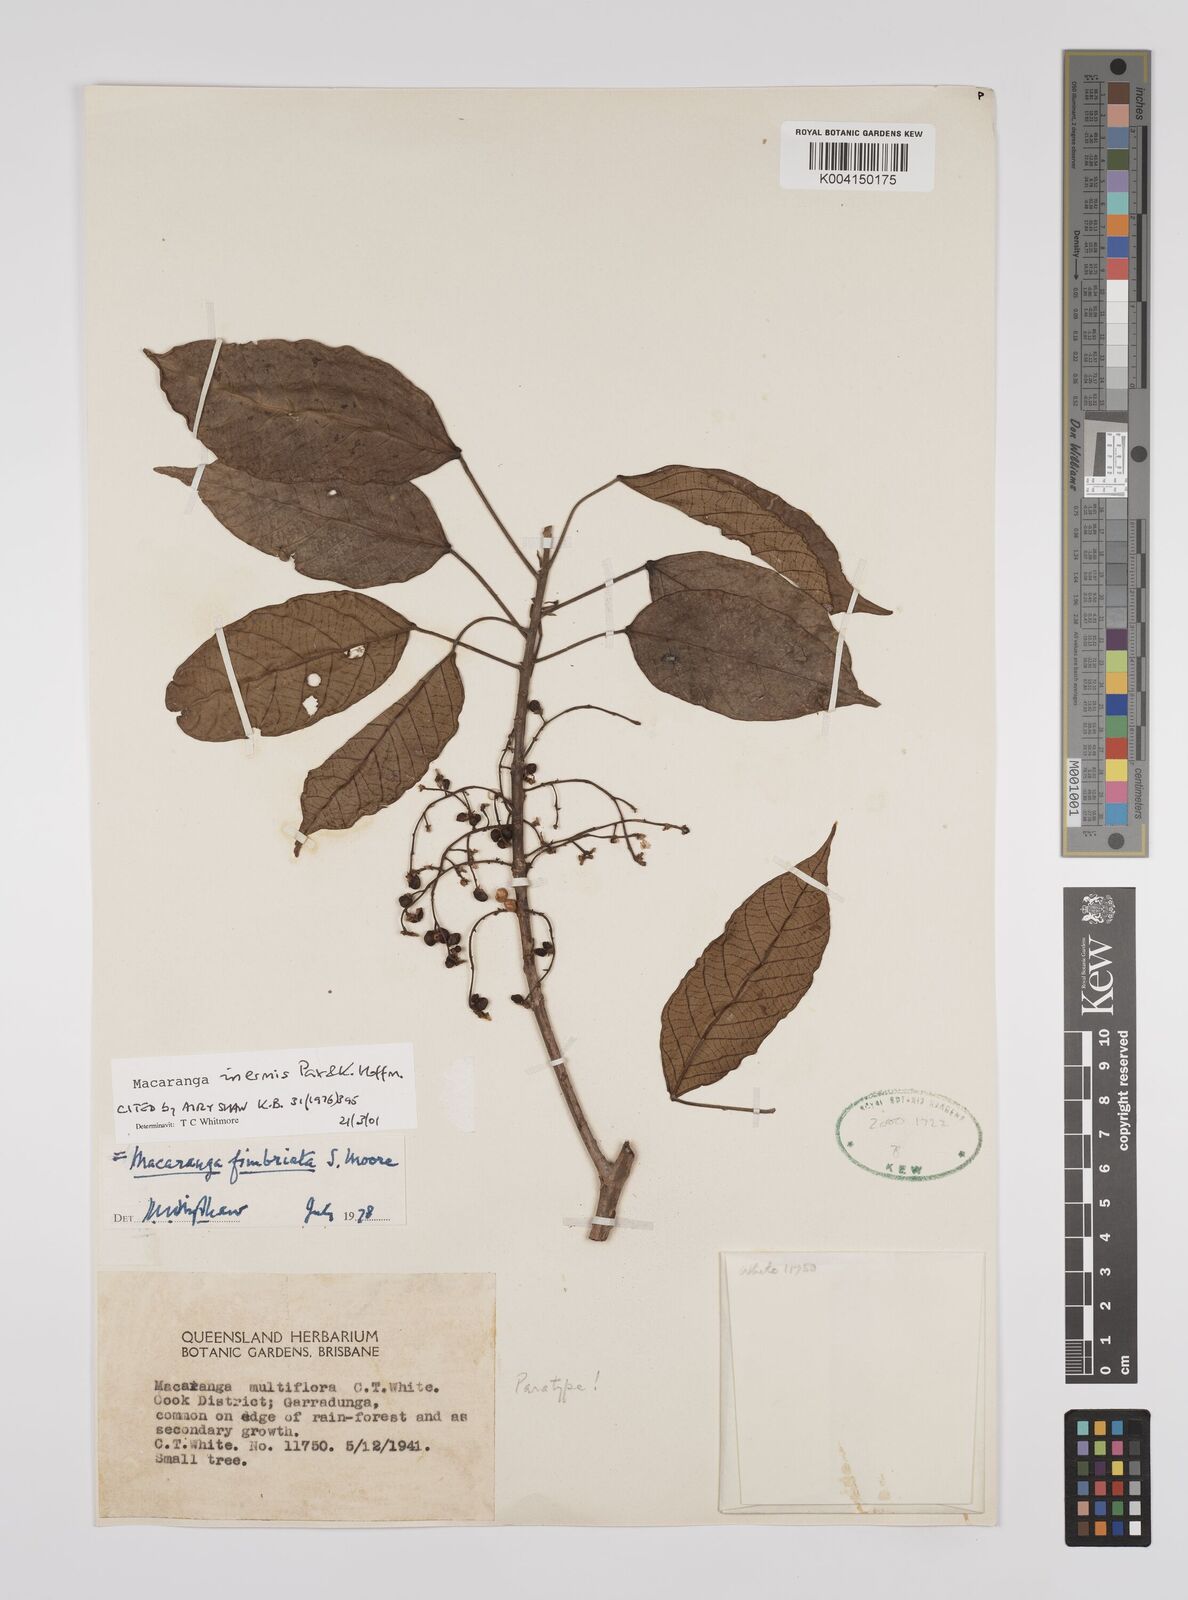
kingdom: Plantae
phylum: Tracheophyta
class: Magnoliopsida
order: Malpighiales
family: Euphorbiaceae
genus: Macaranga
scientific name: Macaranga inermis
